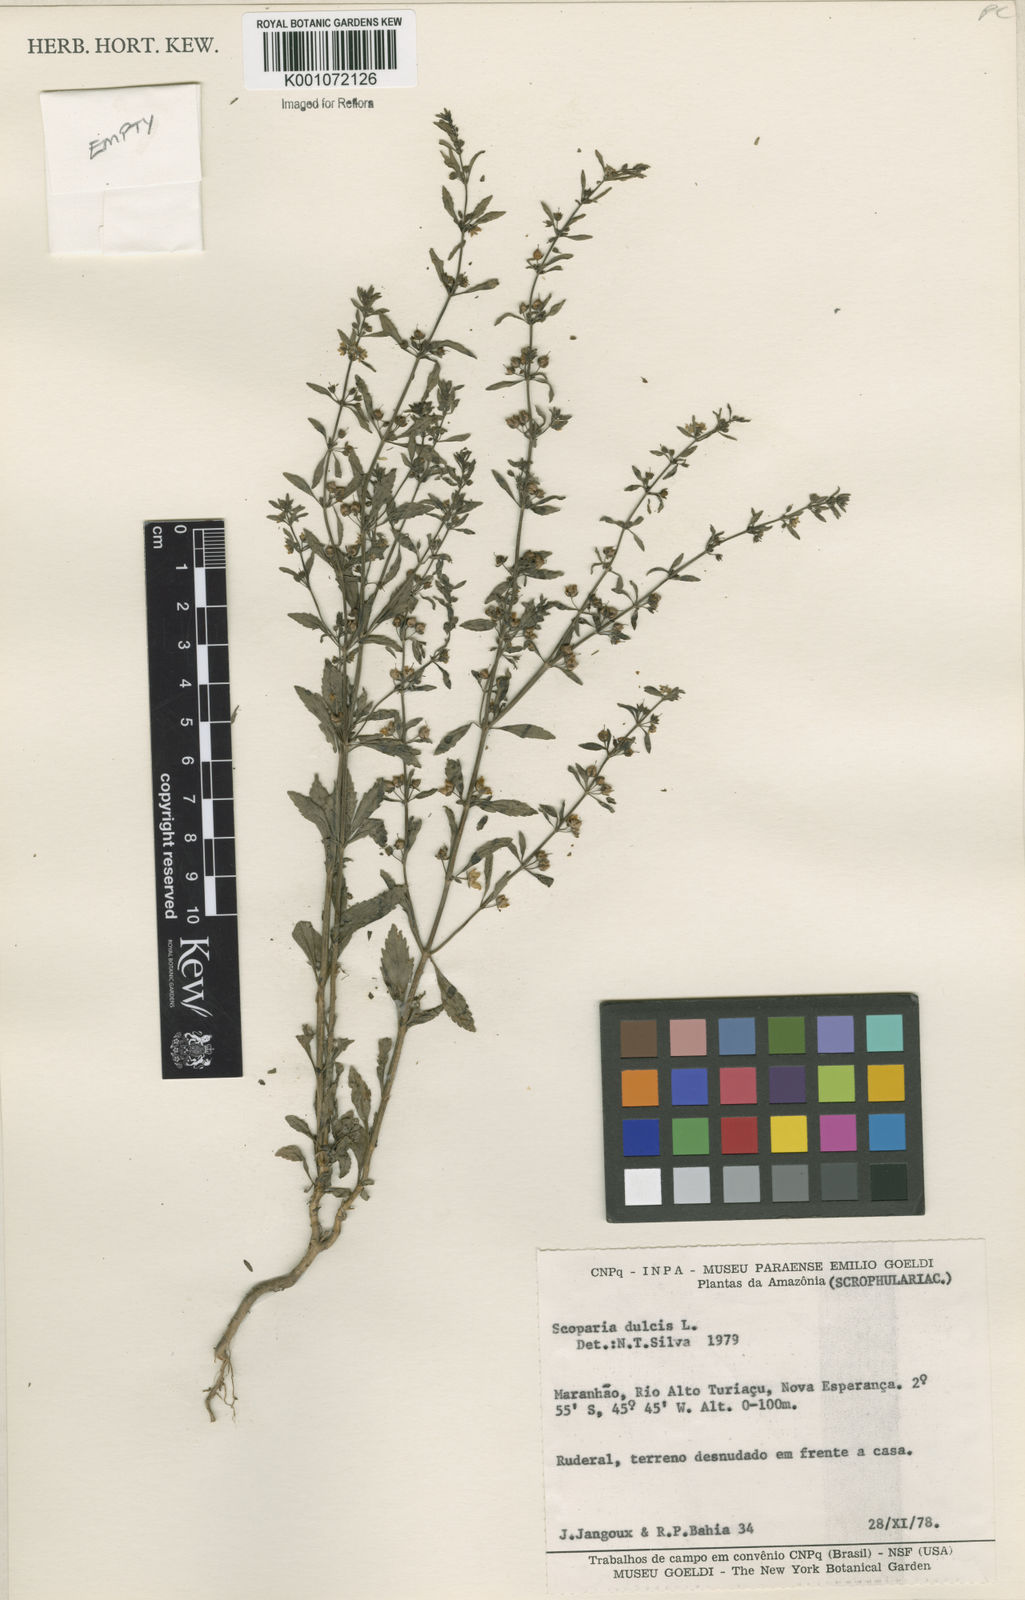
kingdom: Plantae
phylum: Tracheophyta
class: Magnoliopsida
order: Lamiales
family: Plantaginaceae
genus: Scoparia
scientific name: Scoparia dulcis
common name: Scoparia-weed
